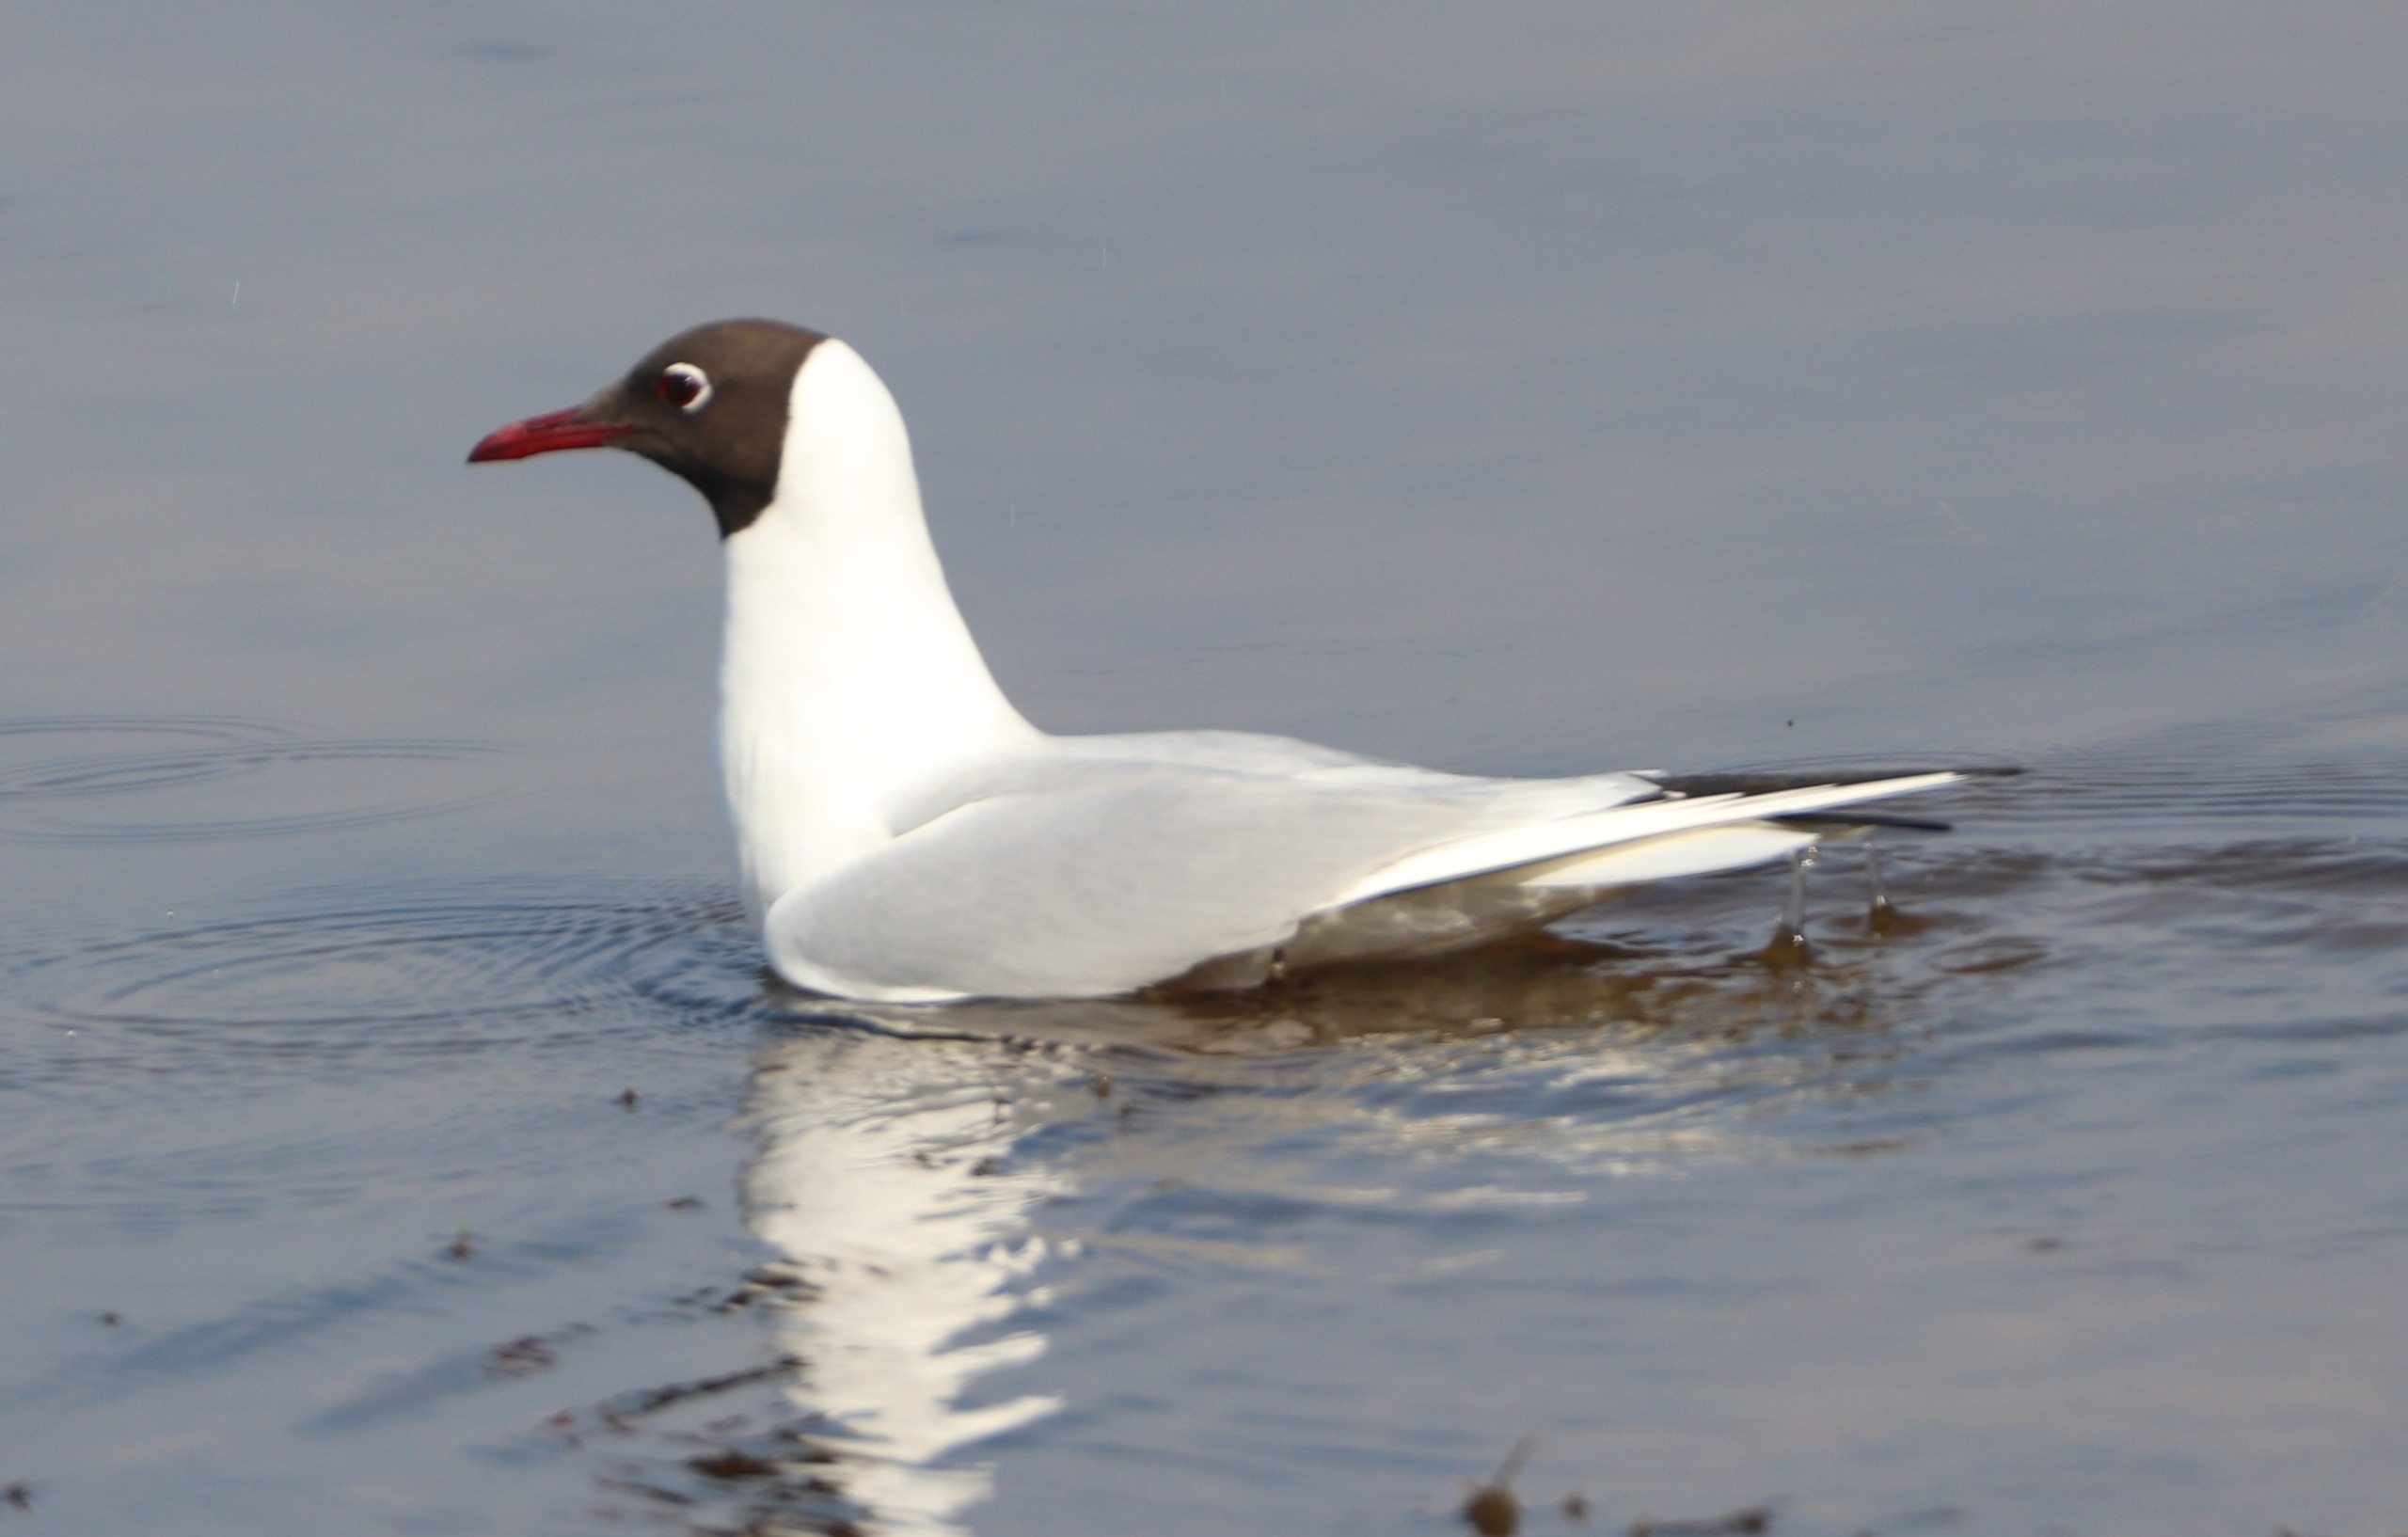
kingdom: Animalia
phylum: Chordata
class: Aves
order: Charadriiformes
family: Laridae
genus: Chroicocephalus
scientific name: Chroicocephalus ridibundus
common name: Hættemåge
